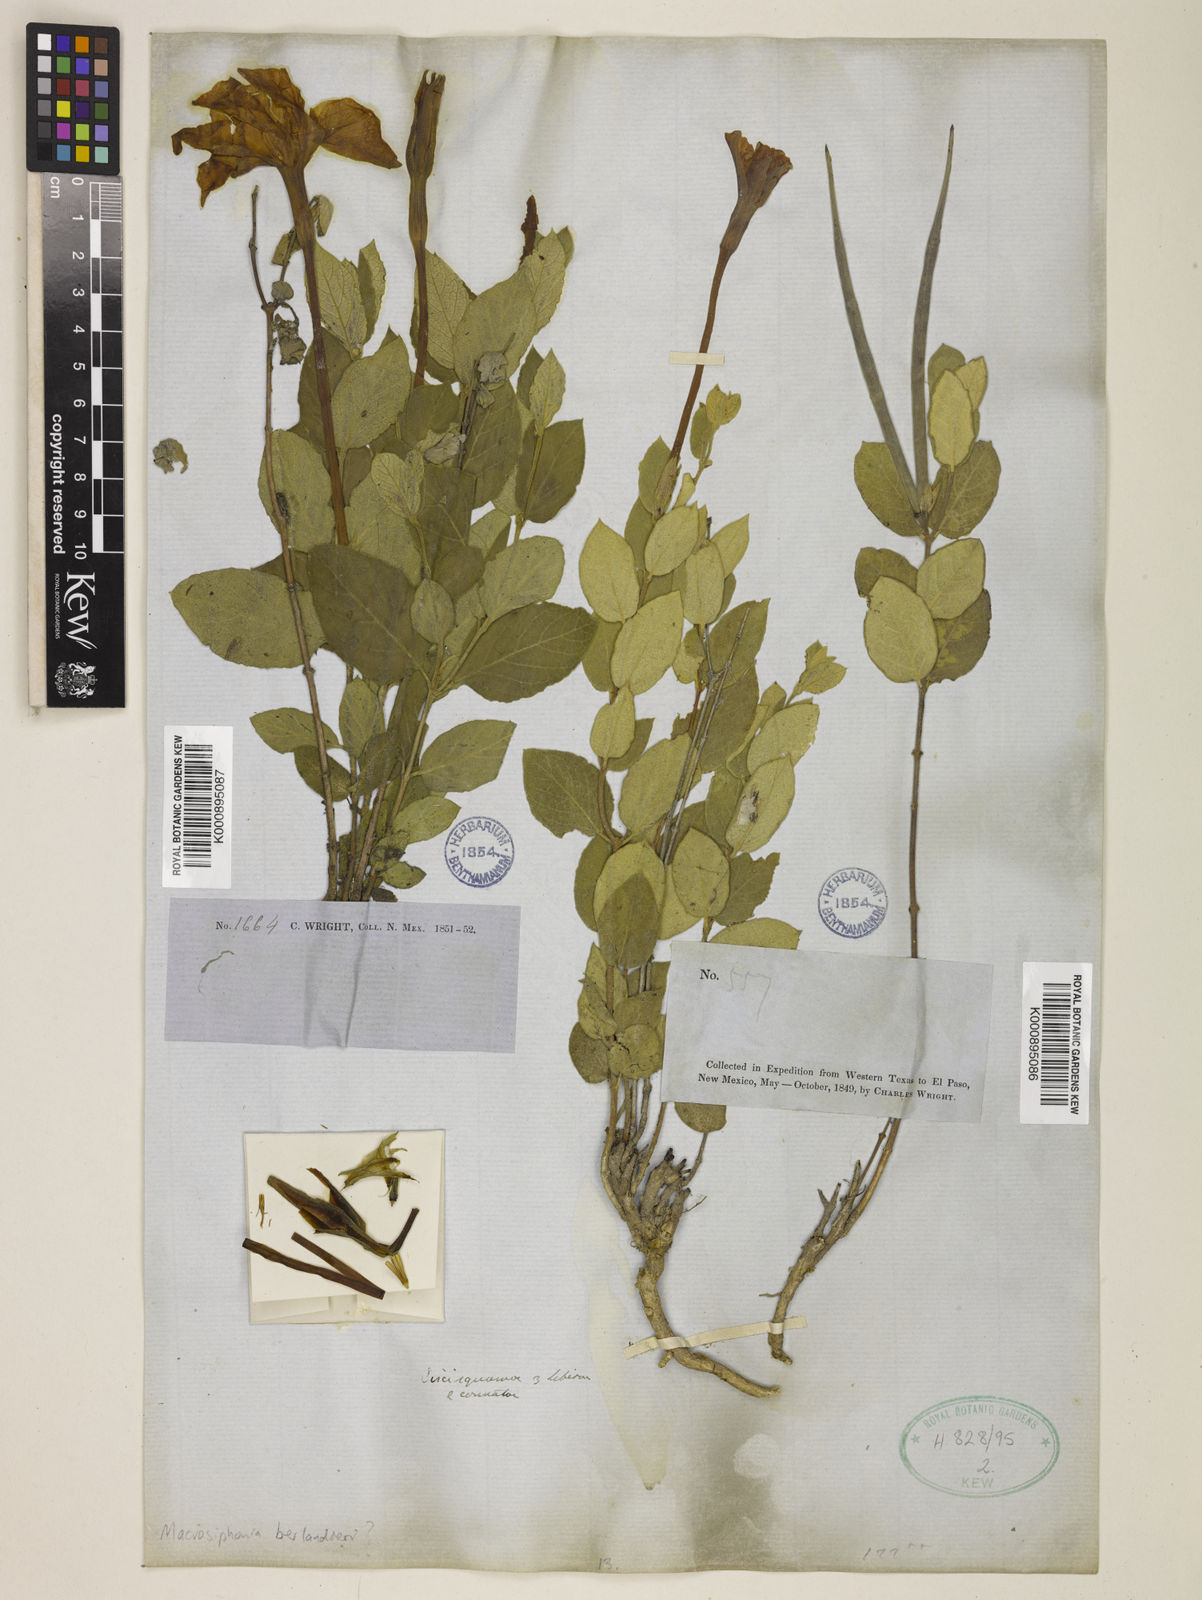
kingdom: Plantae
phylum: Tracheophyta
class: Magnoliopsida
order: Gentianales
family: Apocynaceae
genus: Mandevilla
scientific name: Mandevilla macrosiphon
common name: Plateau rocktrumpet
